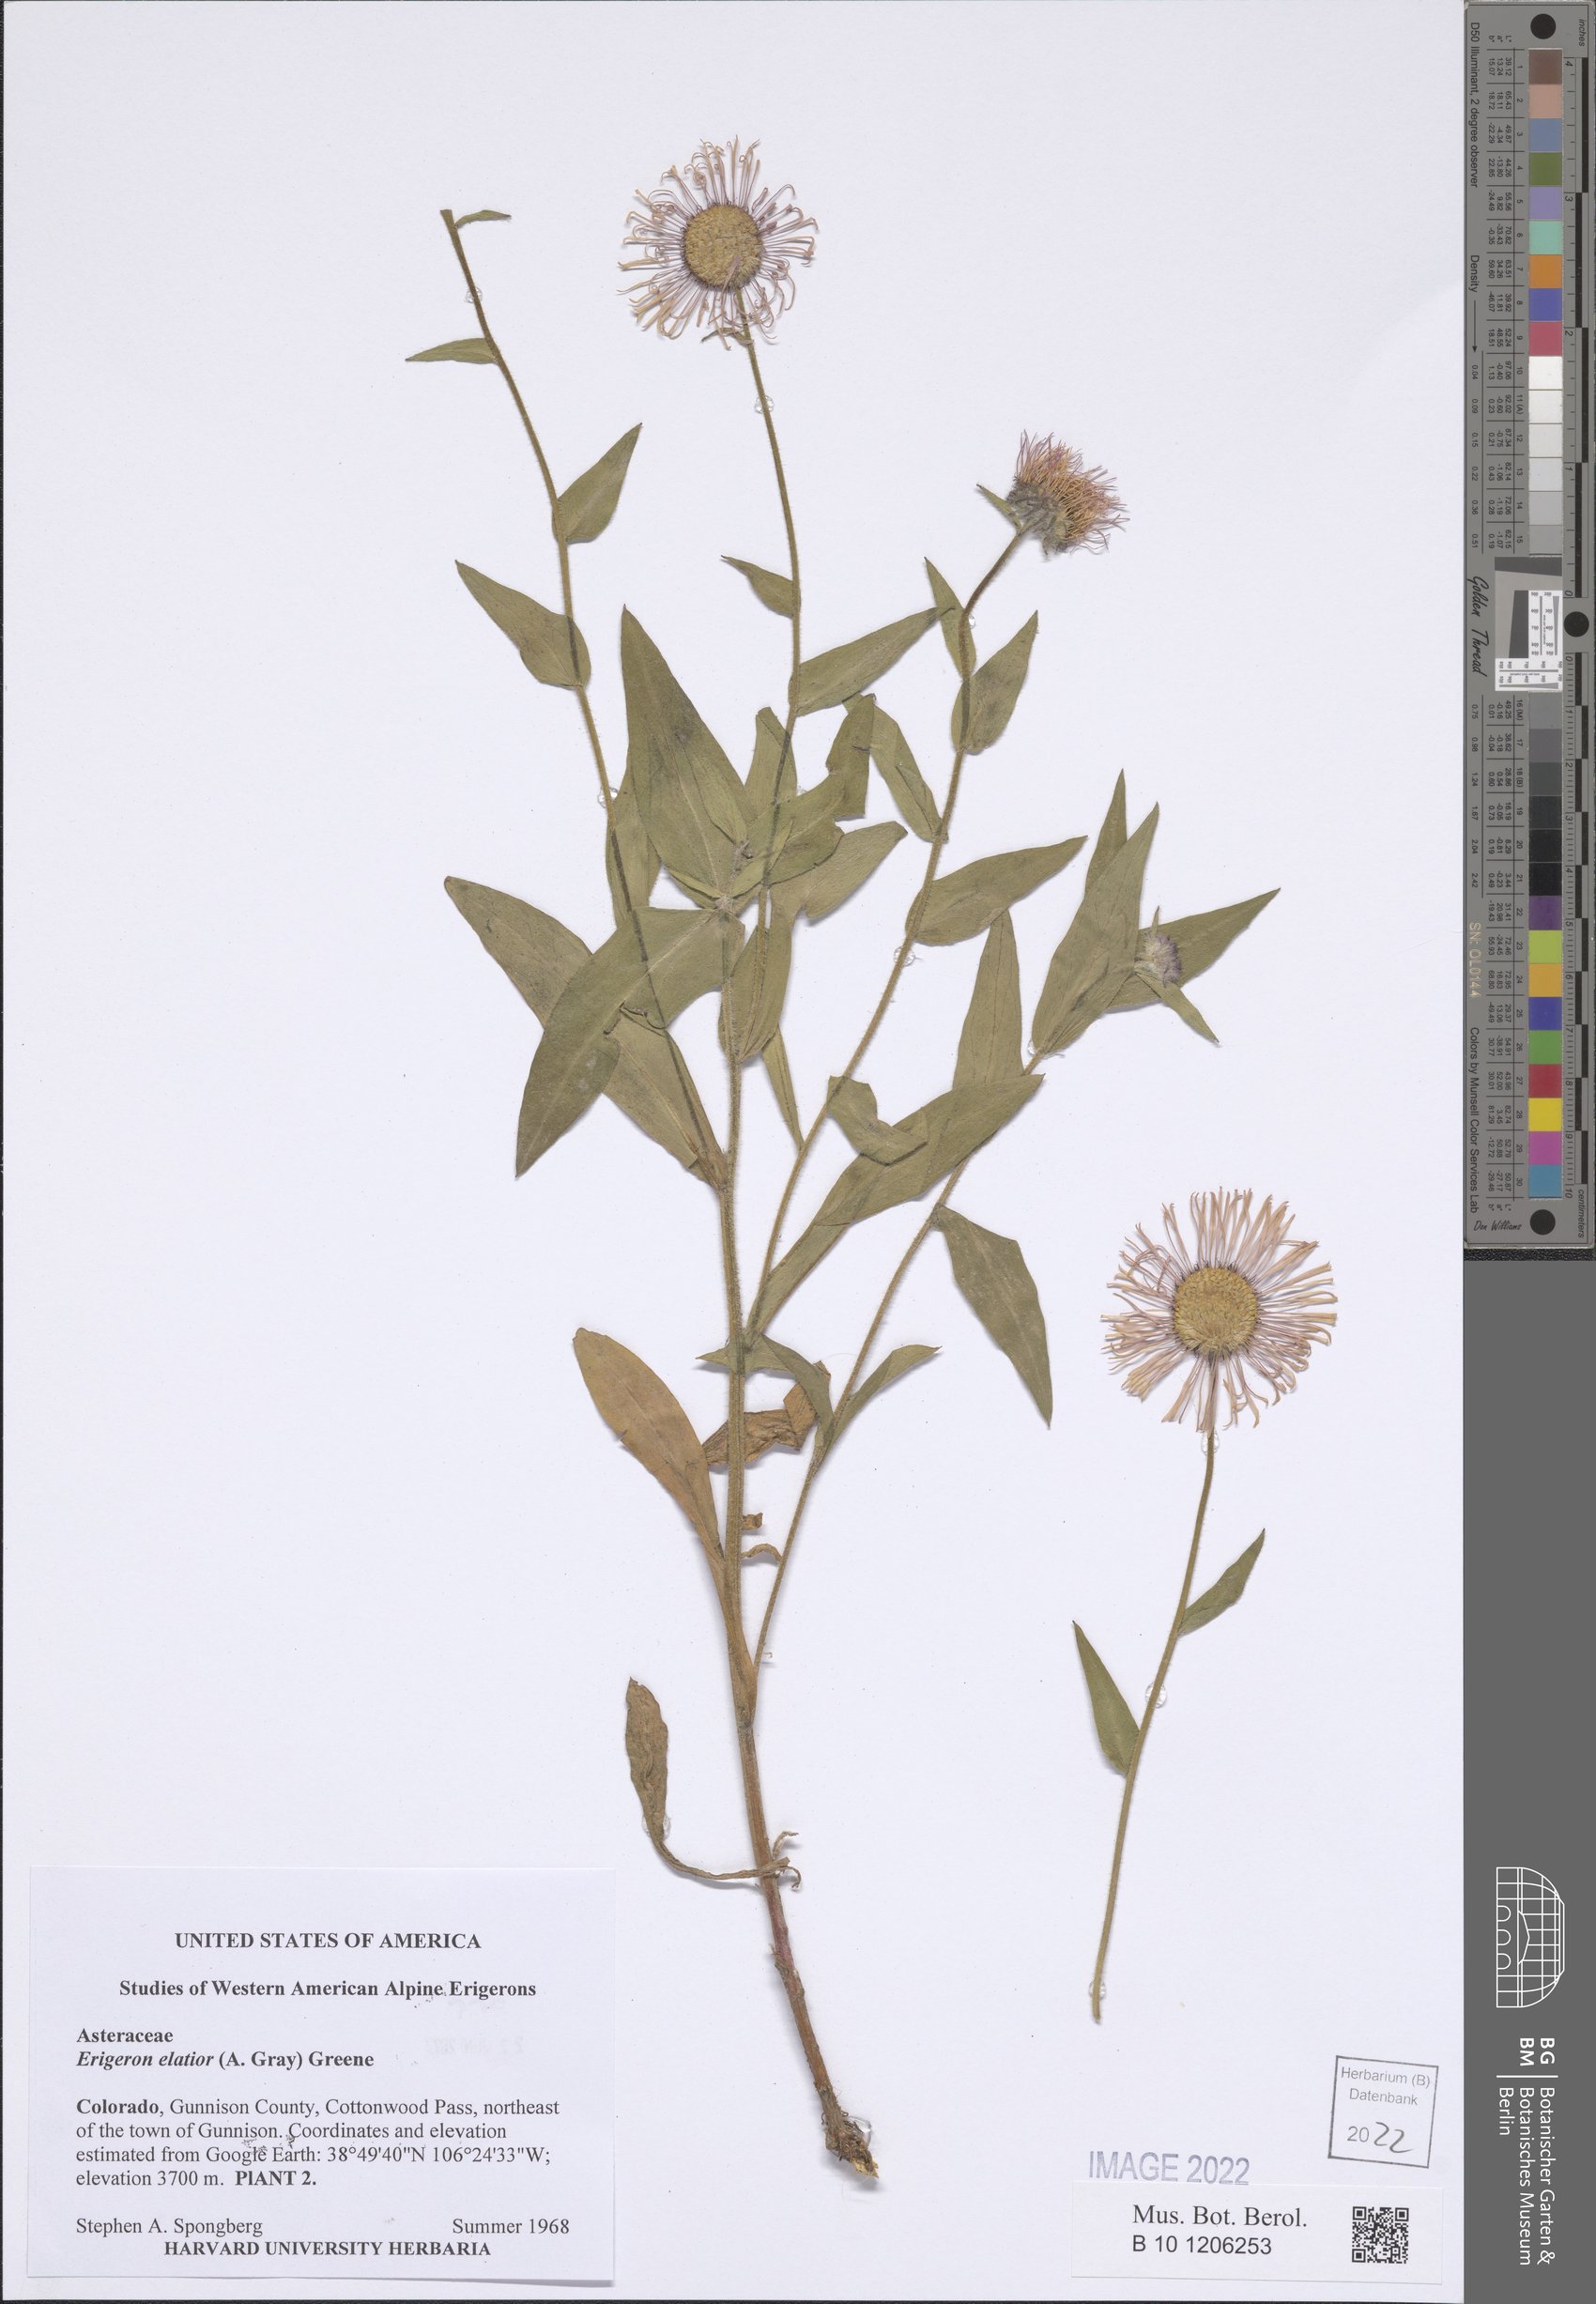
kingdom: Plantae
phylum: Tracheophyta
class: Magnoliopsida
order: Asterales
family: Asteraceae
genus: Erigeron
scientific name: Erigeron elatior
